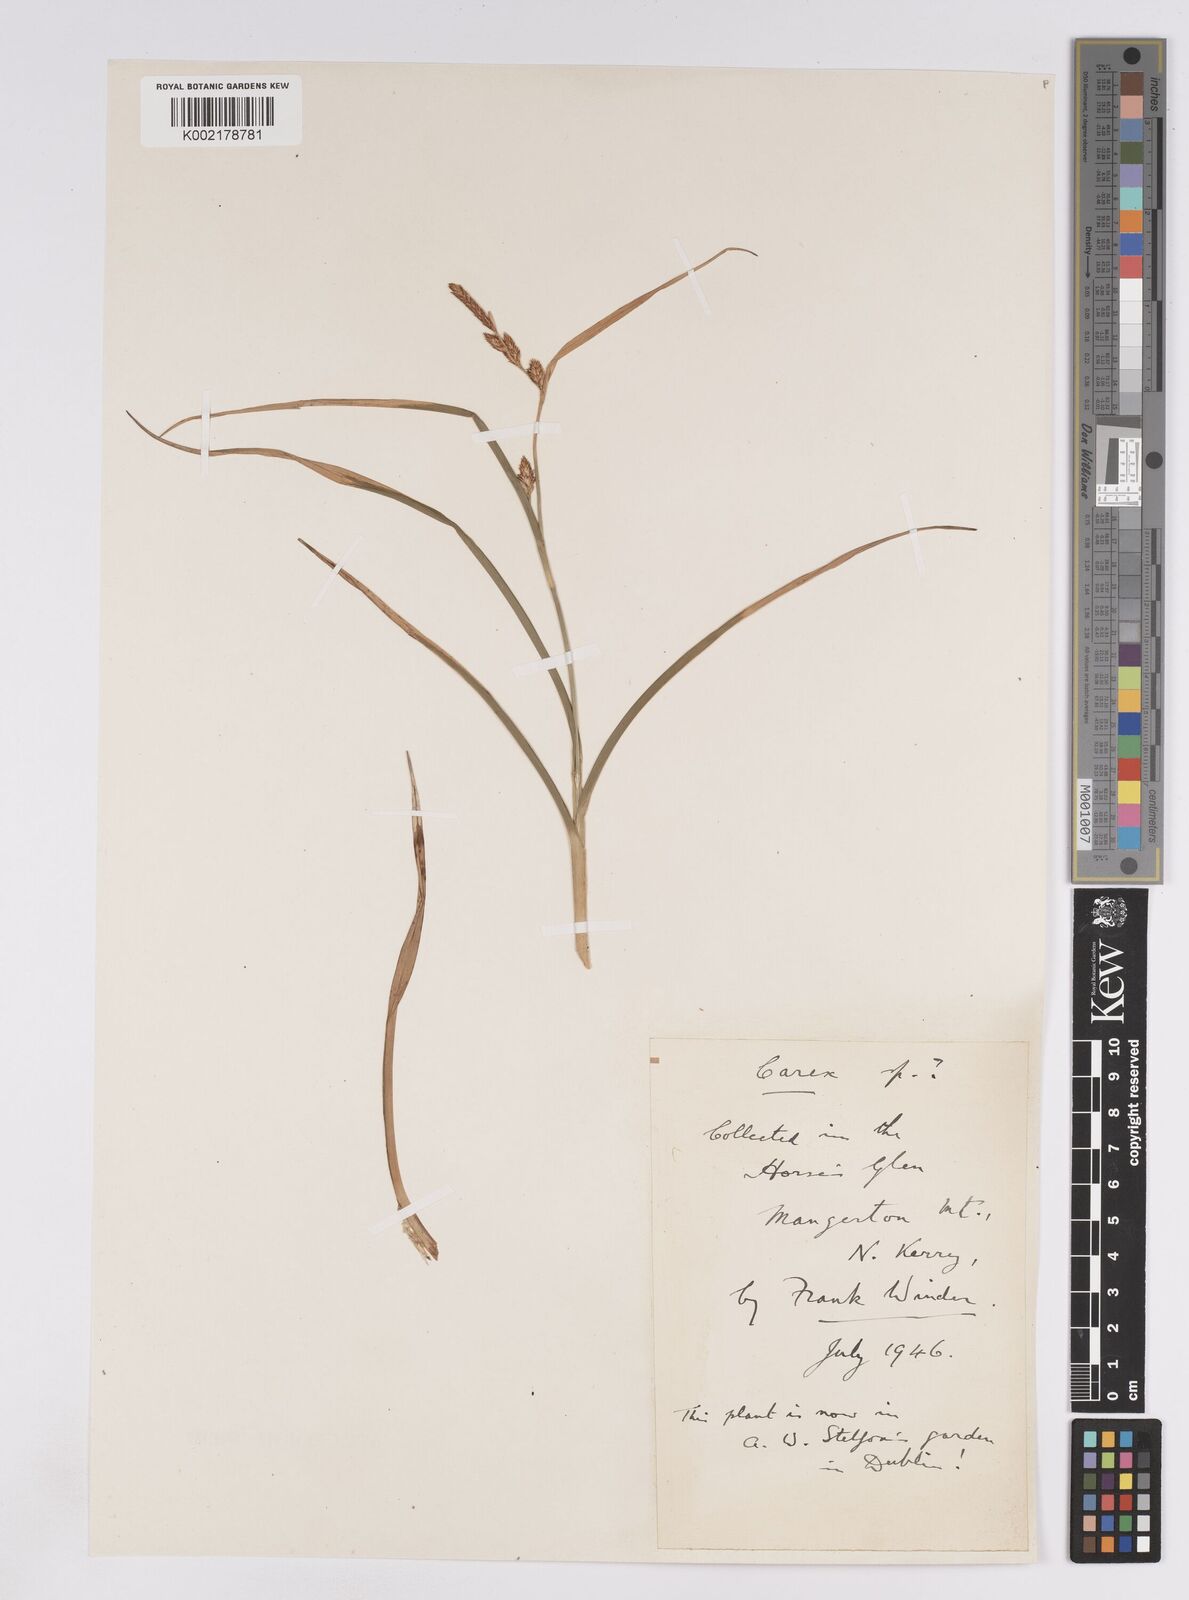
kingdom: Plantae
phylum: Tracheophyta
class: Liliopsida
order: Poales
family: Cyperaceae
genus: Carex
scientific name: Carex lepidocarpa
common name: Long-stalked yellow-sedge
